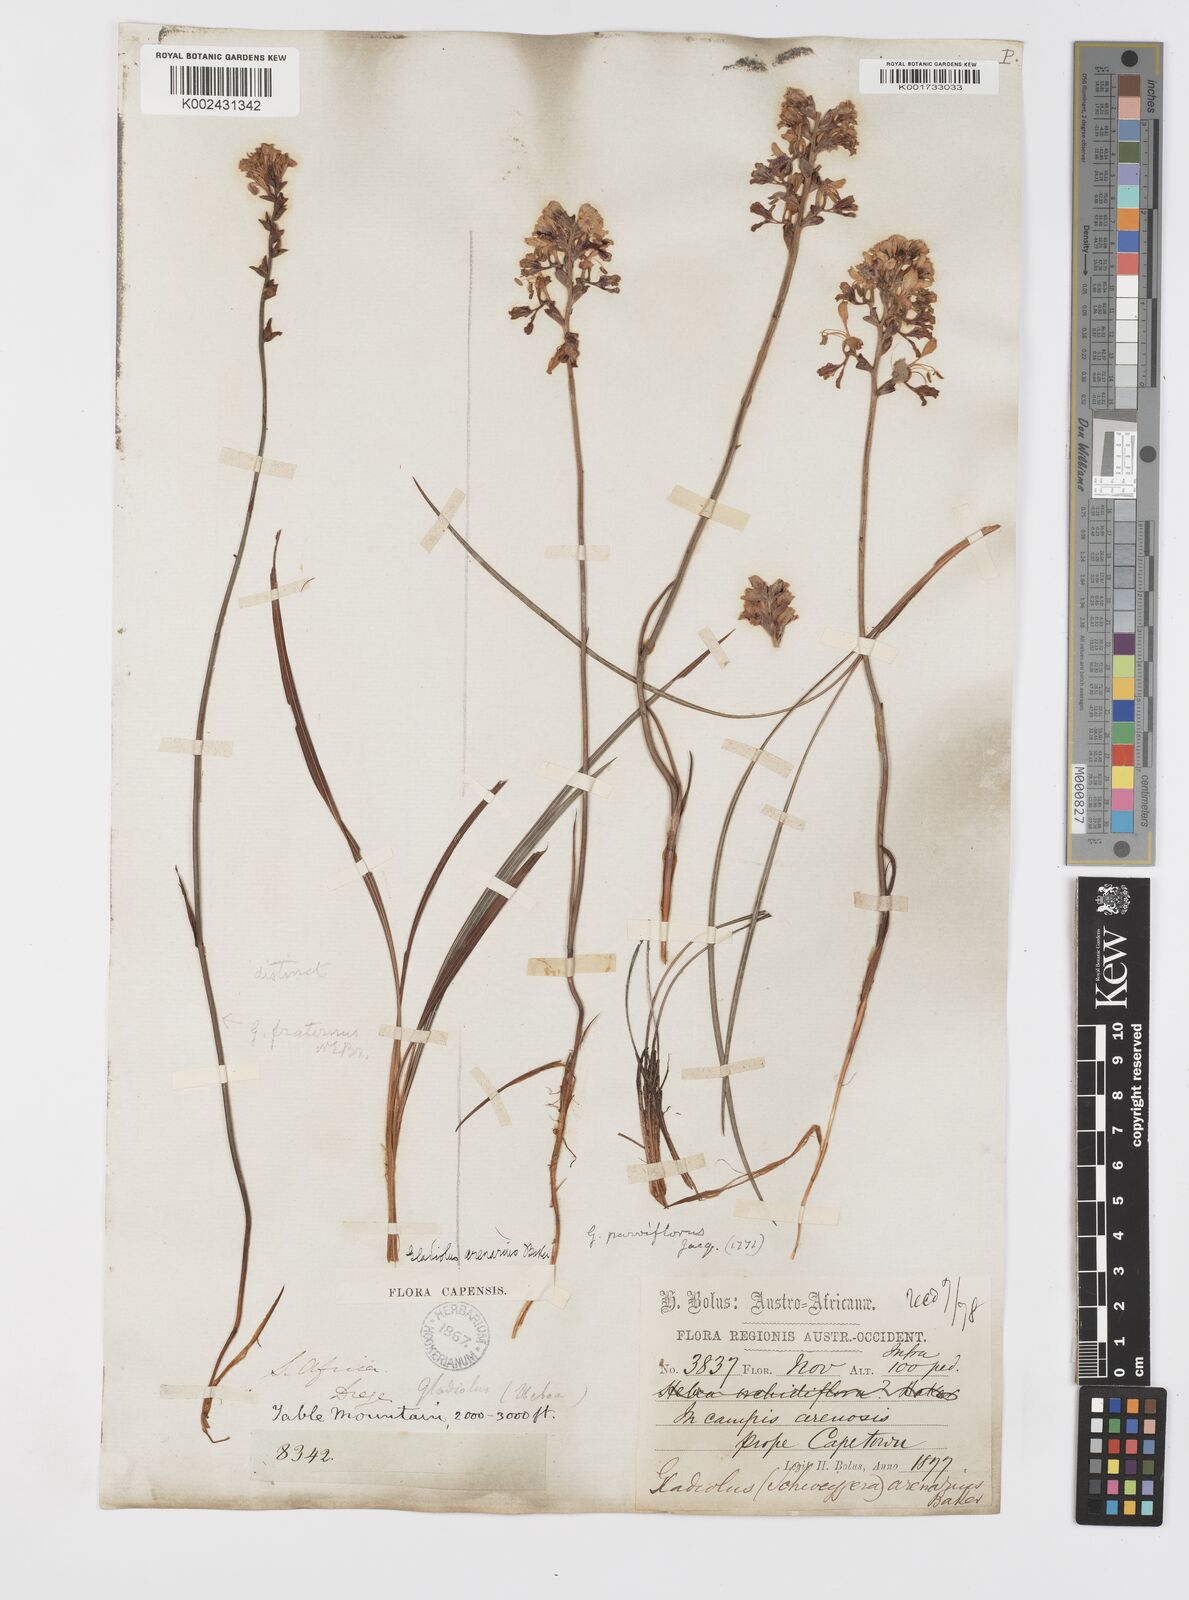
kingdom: Plantae
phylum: Tracheophyta
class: Liliopsida
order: Asparagales
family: Iridaceae
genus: Tritoniopsis
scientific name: Tritoniopsis parviflora
